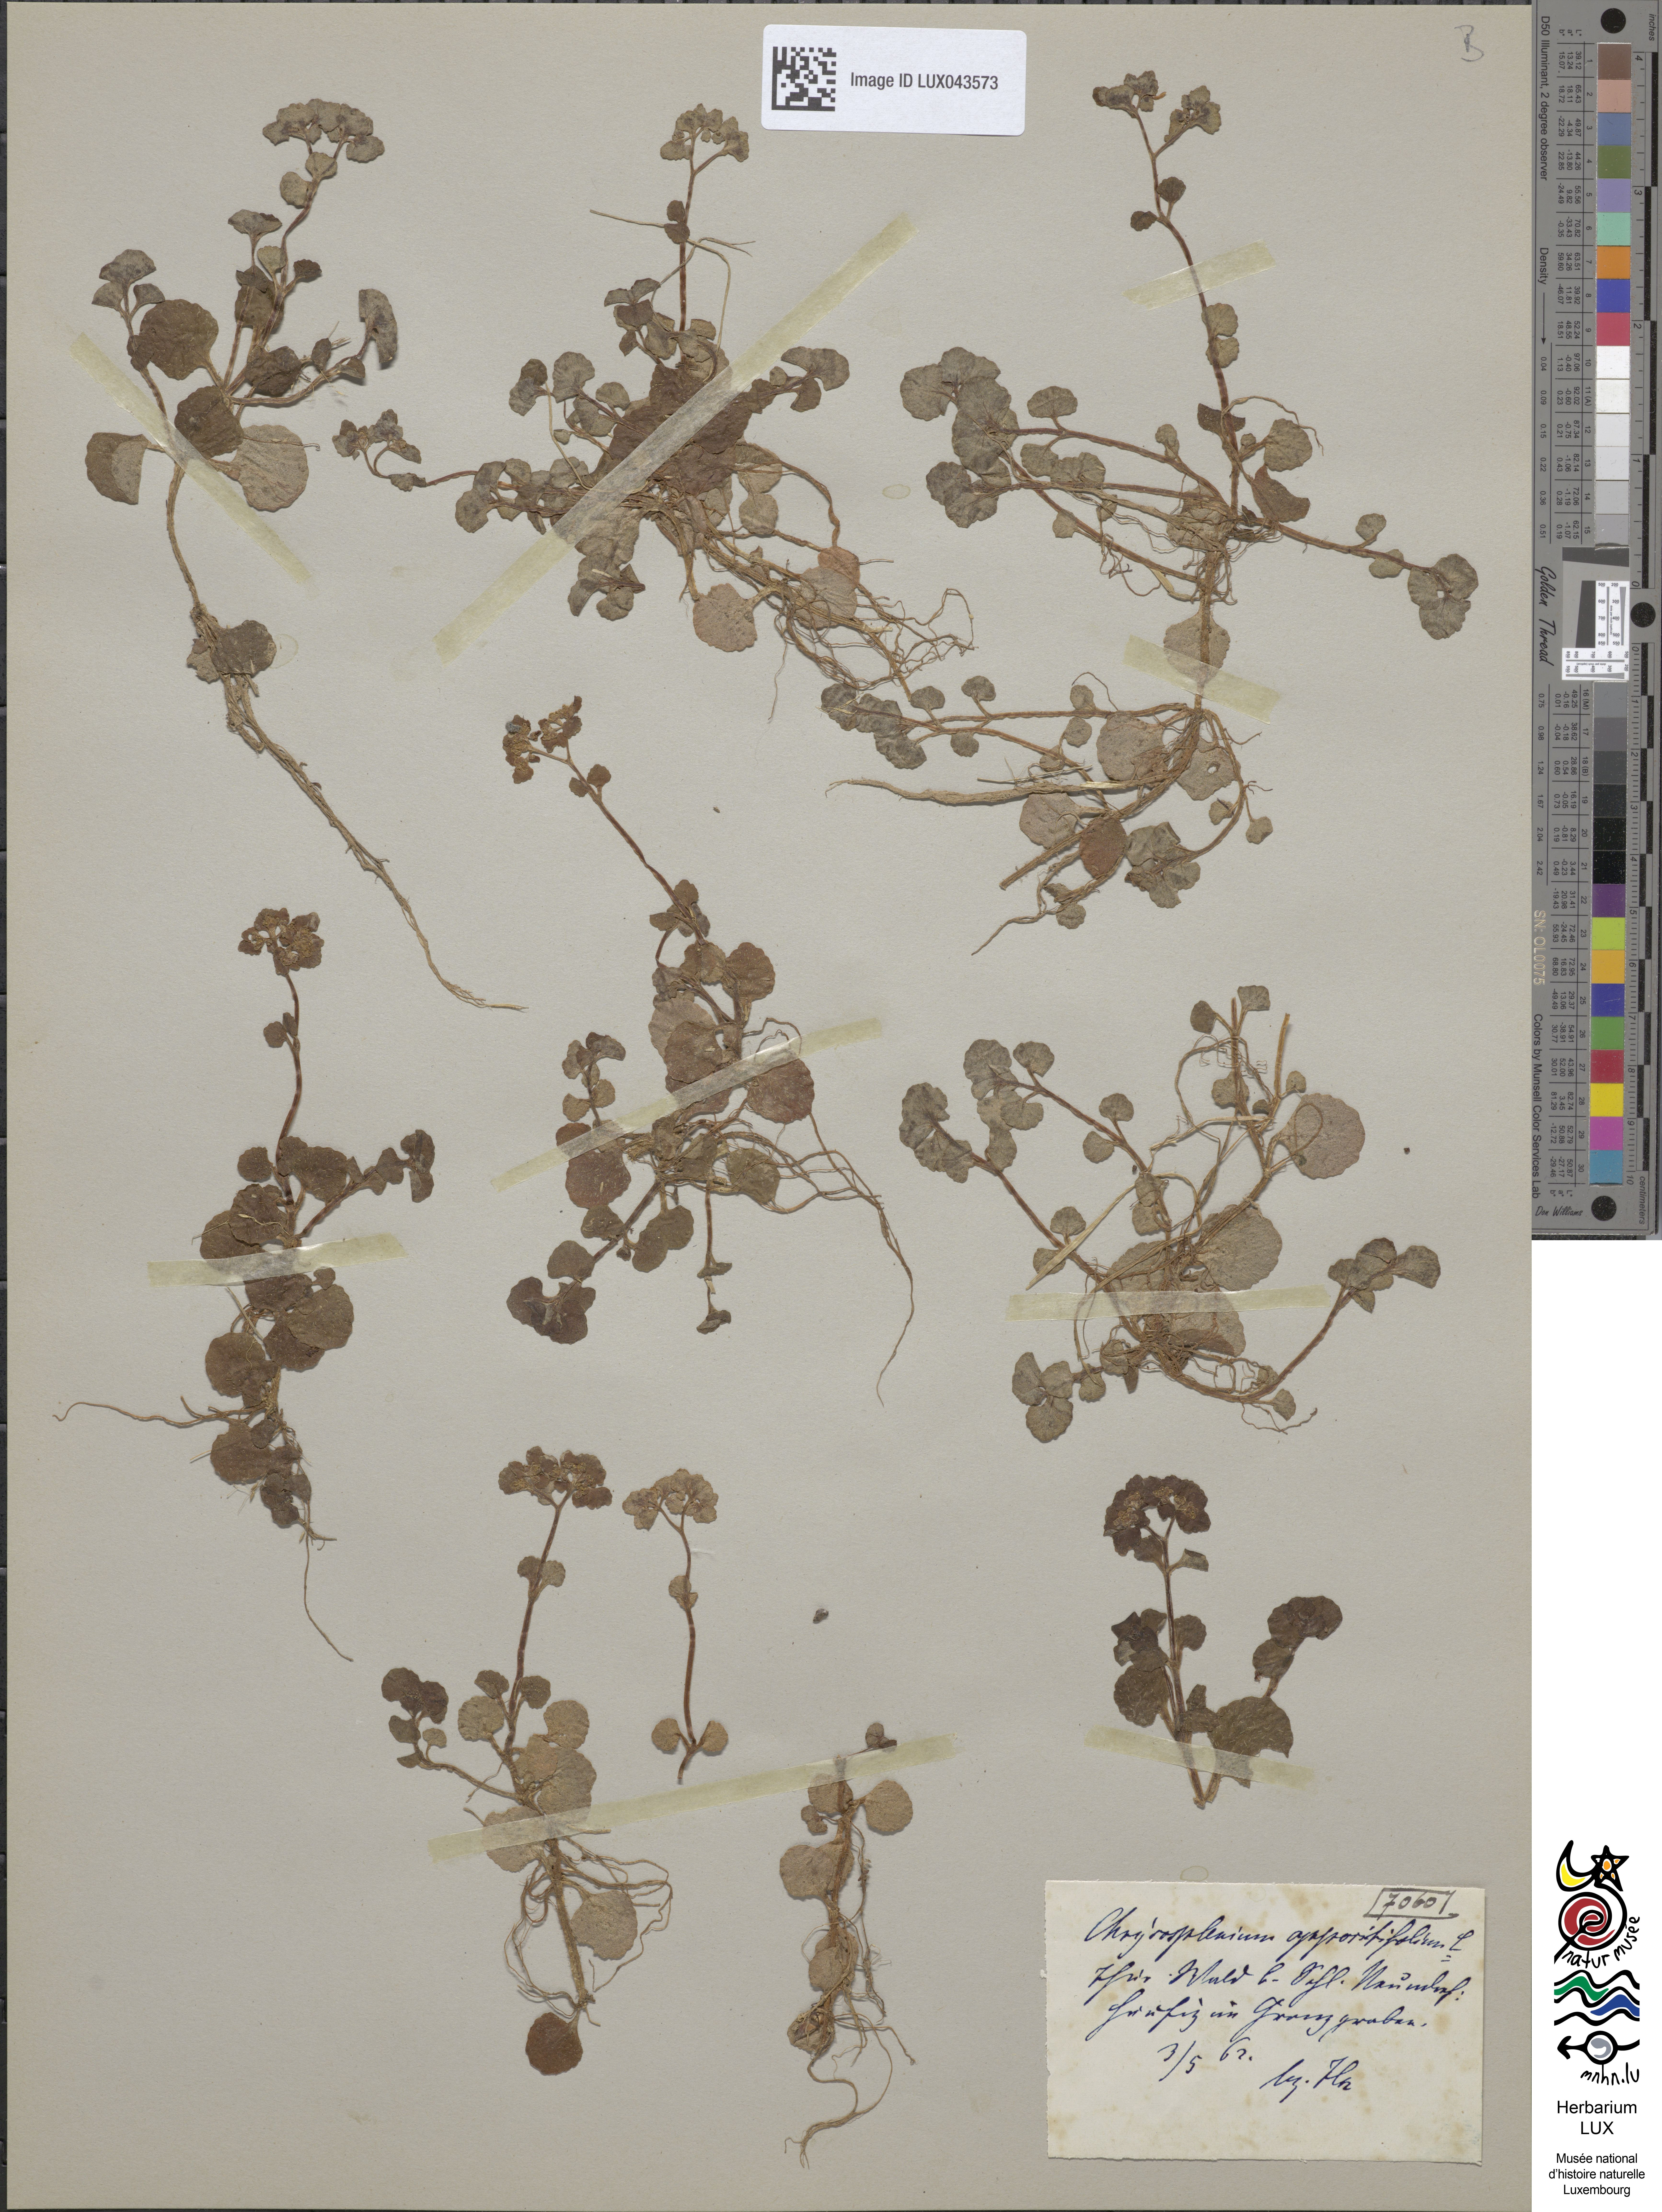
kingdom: Plantae
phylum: Tracheophyta
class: Magnoliopsida
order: Saxifragales
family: Saxifragaceae
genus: Chrysosplenium
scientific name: Chrysosplenium oppositifolium
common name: Opposite-leaved golden-saxifrage
